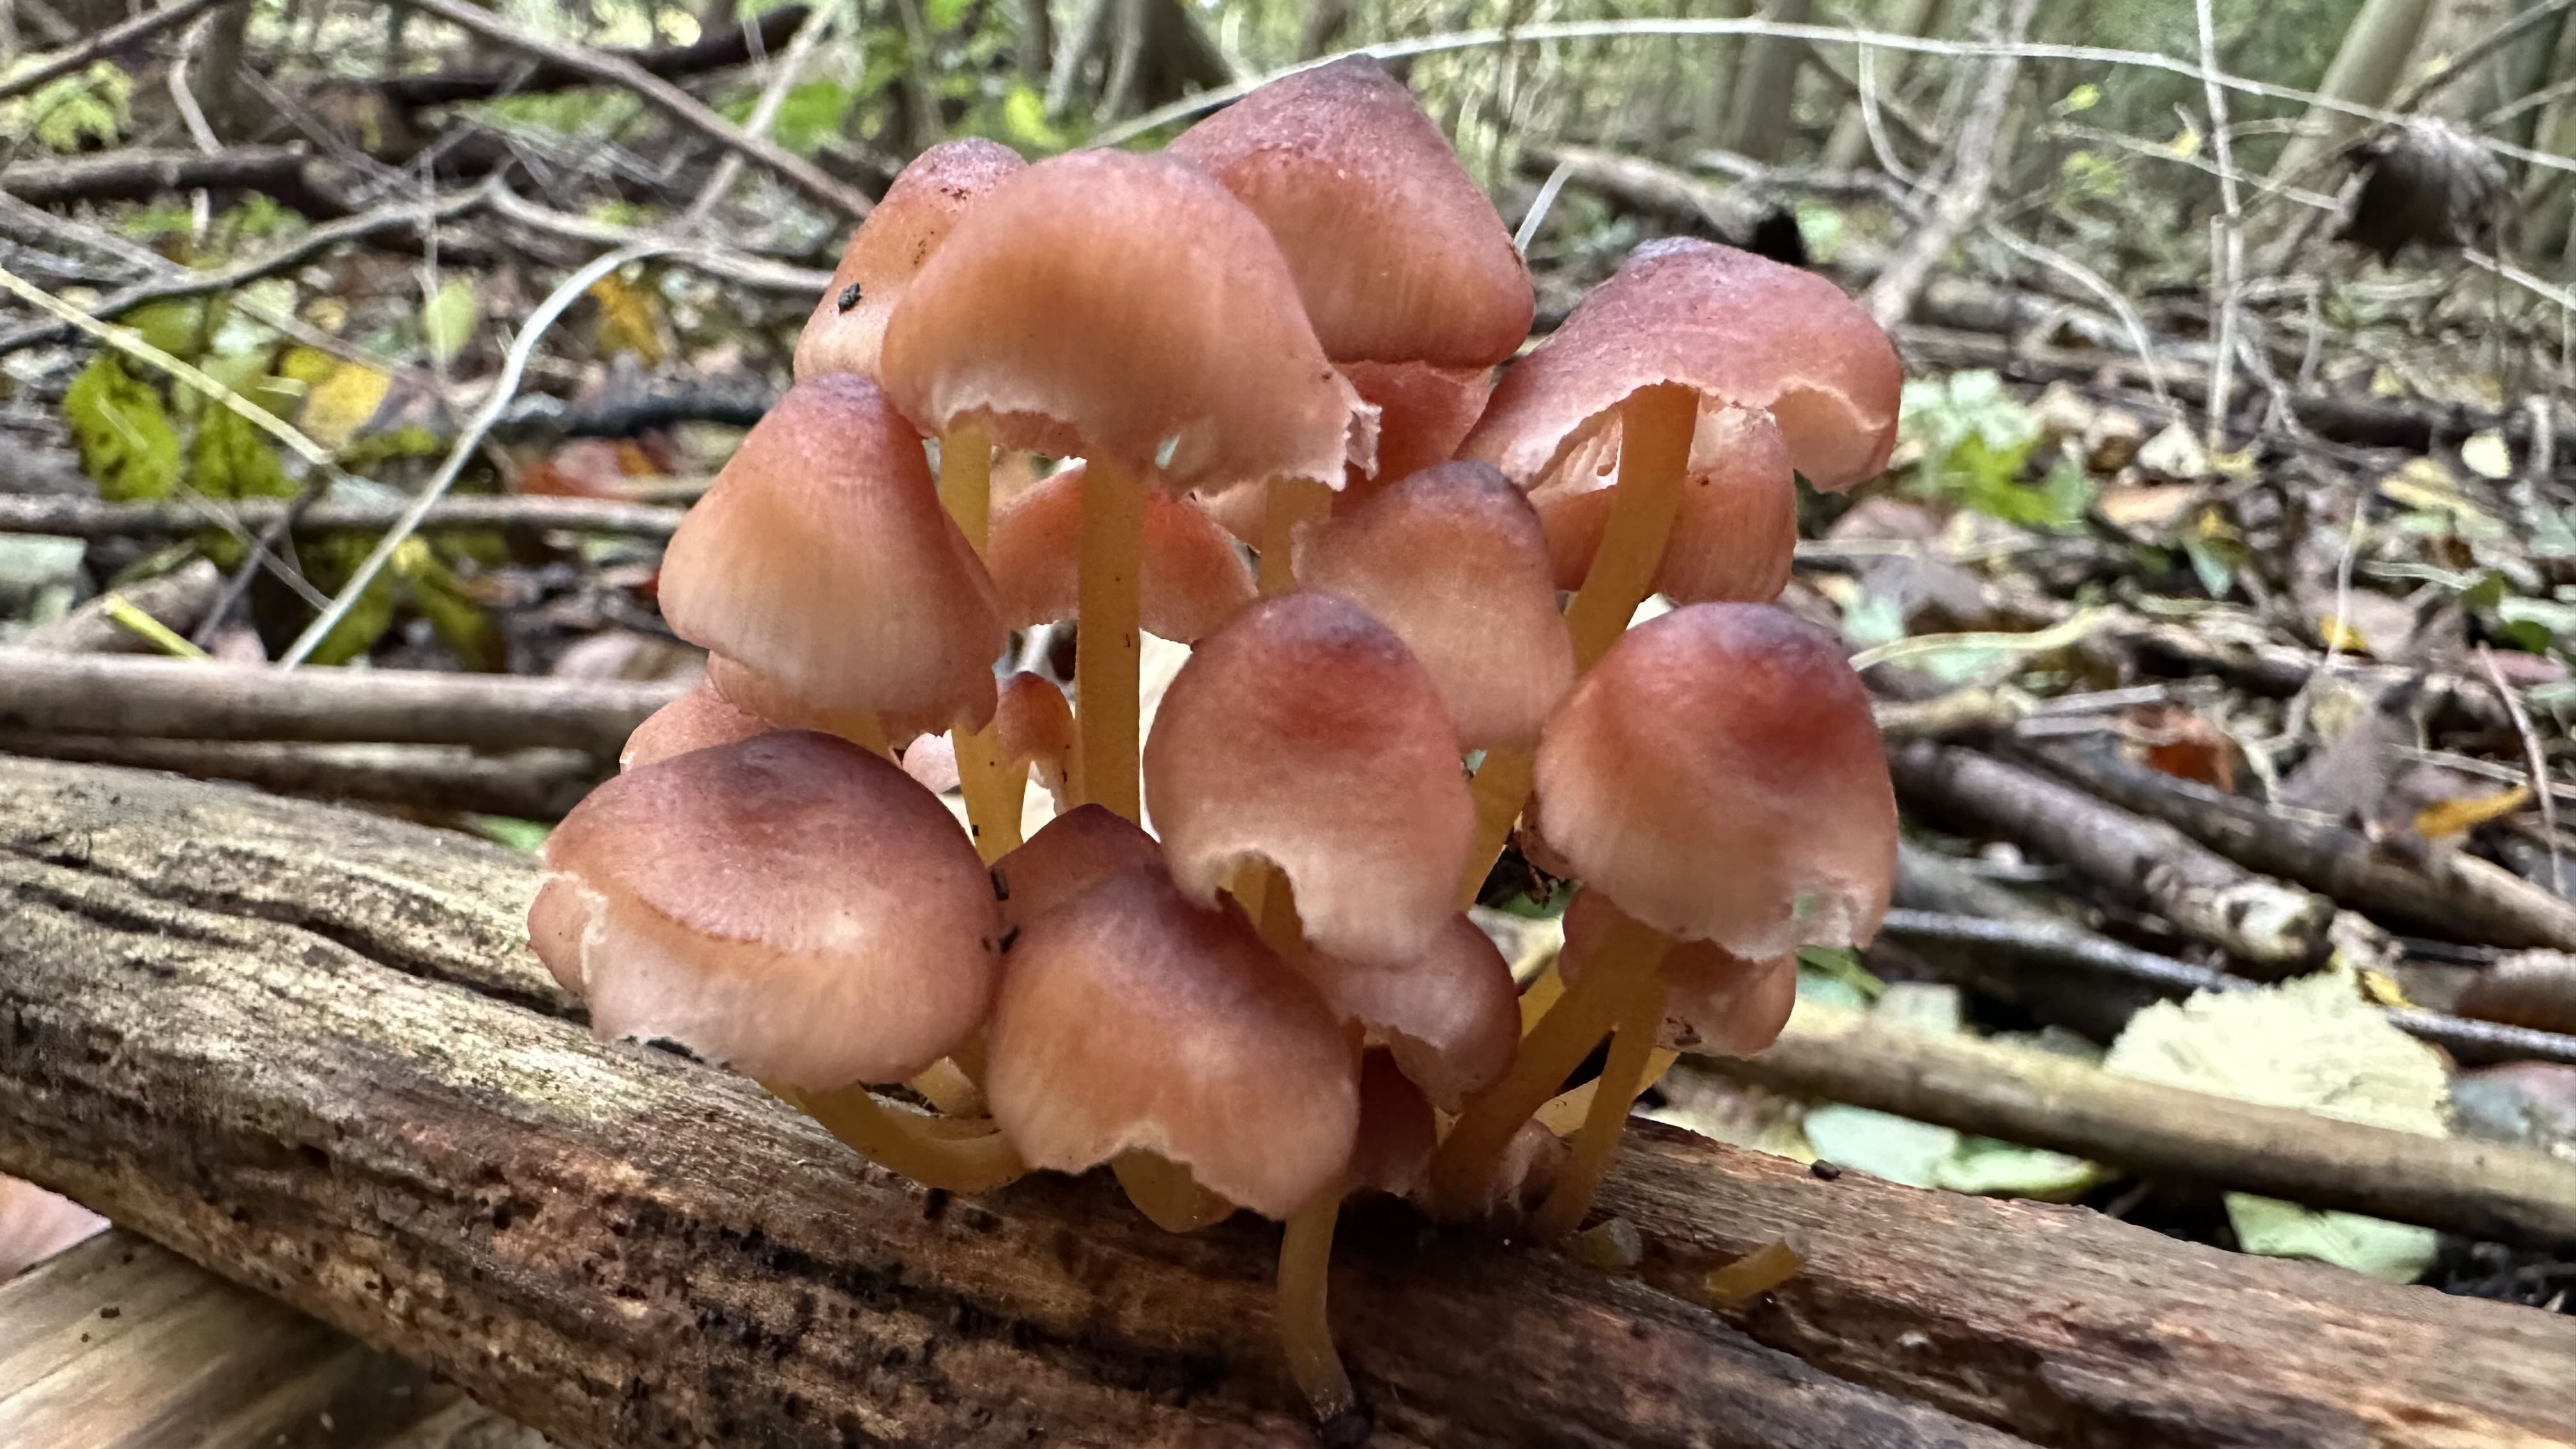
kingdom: Fungi
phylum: Basidiomycota
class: Agaricomycetes
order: Agaricales
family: Mycenaceae
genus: Mycena
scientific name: Mycena renati
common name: smuk huesvamp
